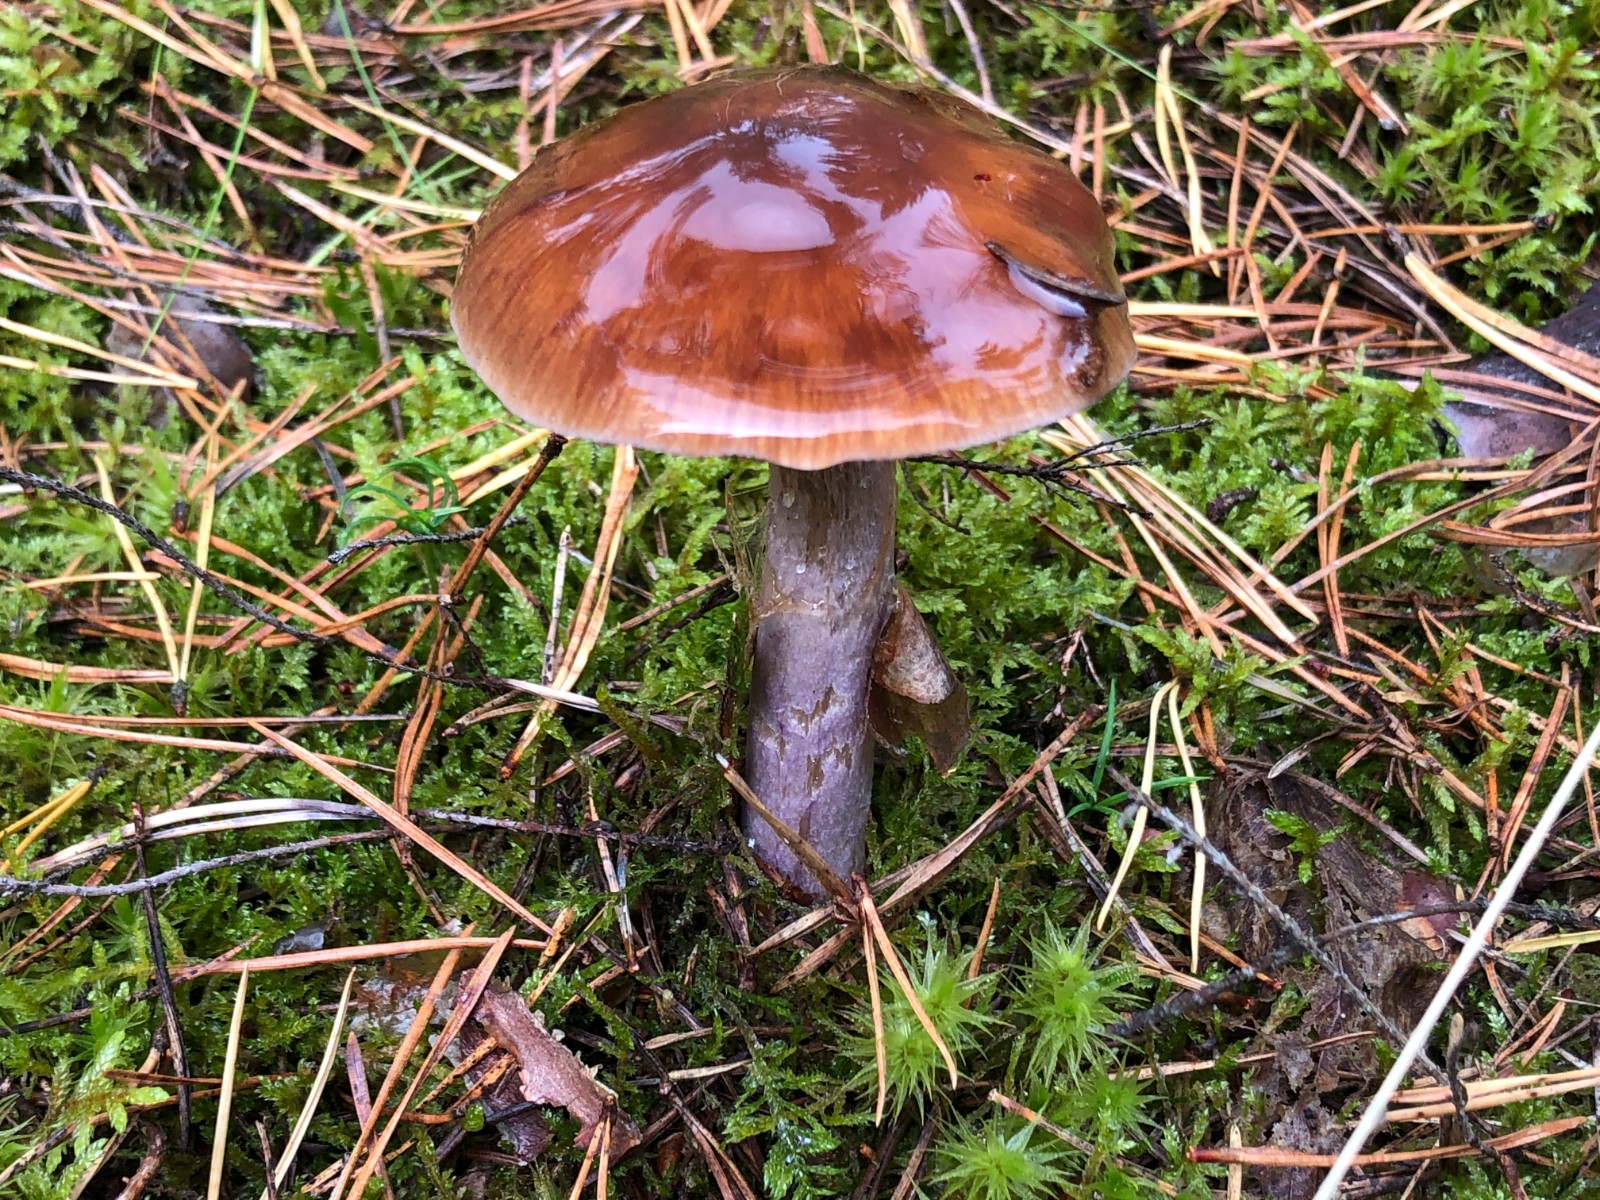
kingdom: Fungi
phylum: Basidiomycota
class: Agaricomycetes
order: Agaricales
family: Cortinariaceae
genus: Cortinarius
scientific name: Cortinarius stillatitius
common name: honningduftende slørhat
